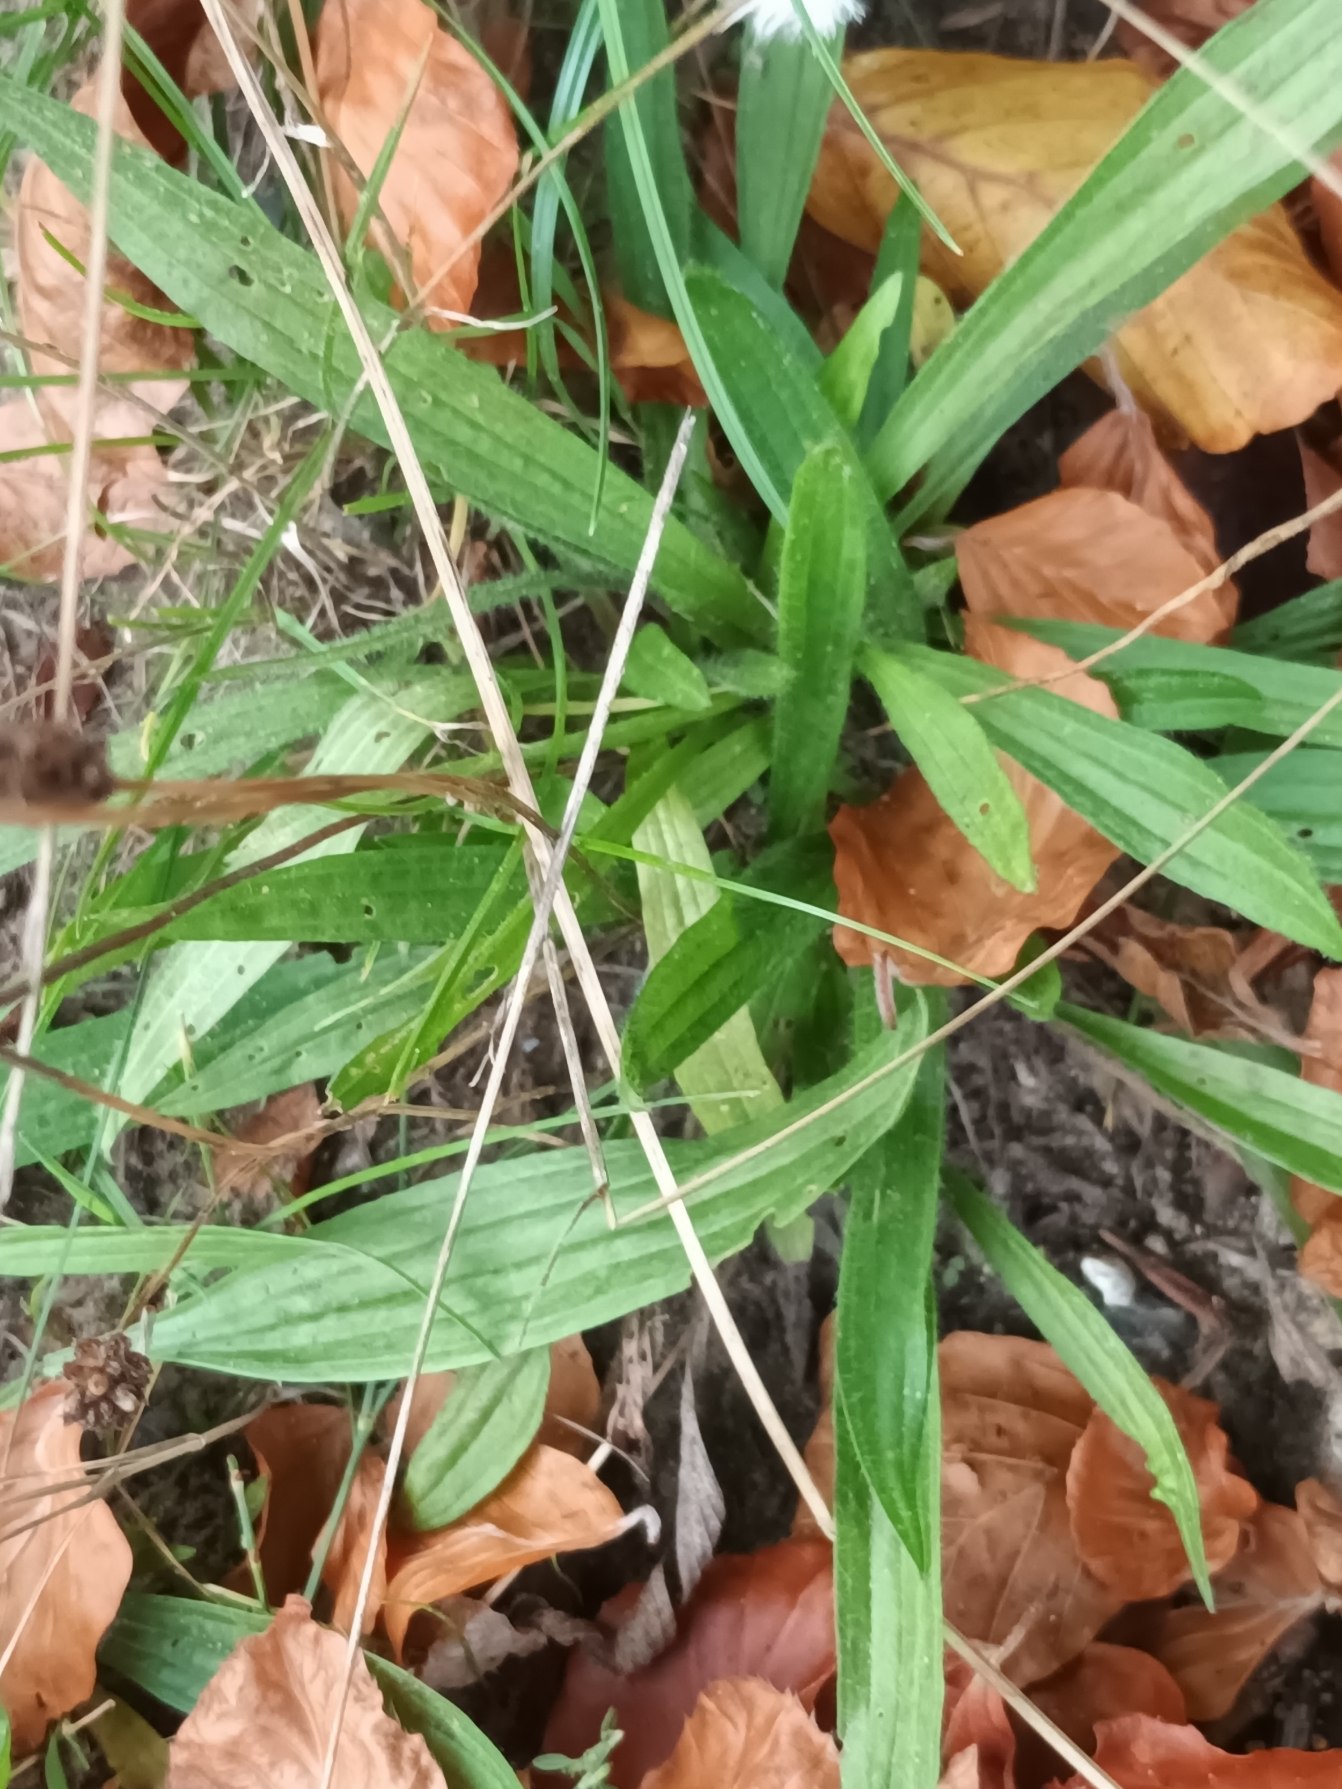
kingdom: Plantae
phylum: Tracheophyta
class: Magnoliopsida
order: Lamiales
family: Plantaginaceae
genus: Plantago
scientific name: Plantago lanceolata
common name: Lancet-vejbred
